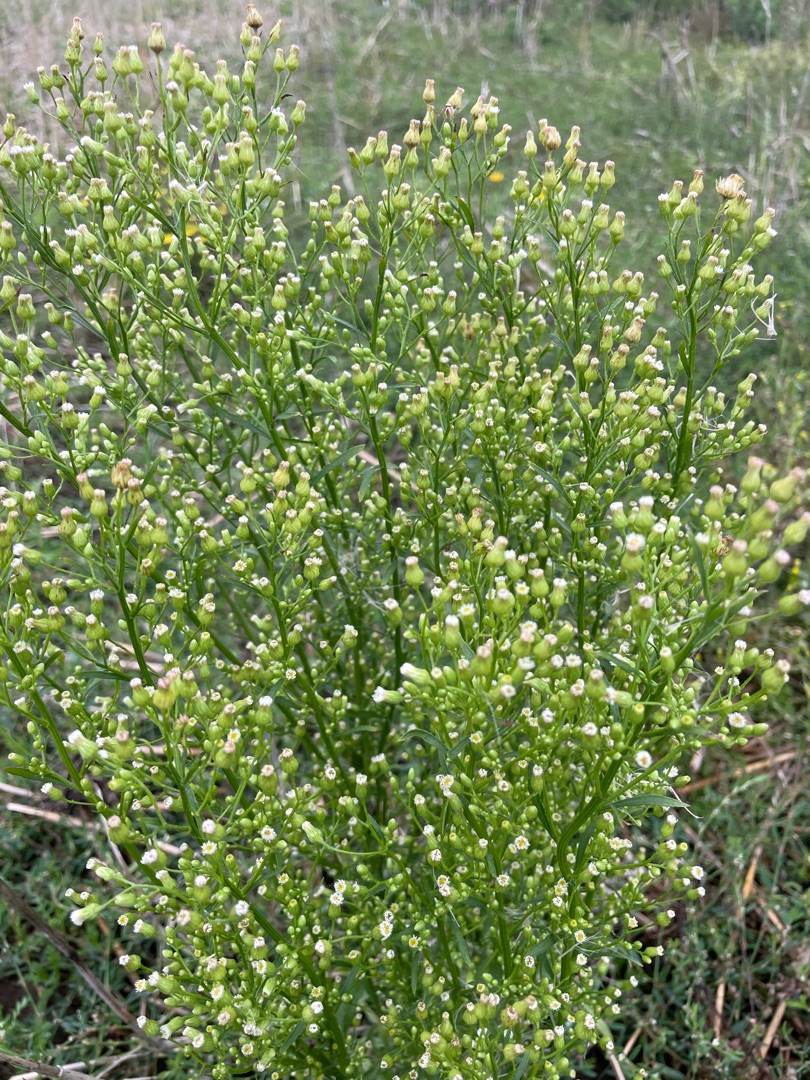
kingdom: Plantae
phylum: Tracheophyta
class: Magnoliopsida
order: Asterales
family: Asteraceae
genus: Erigeron
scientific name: Erigeron canadensis
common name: Kanadisk bakkestjerne
